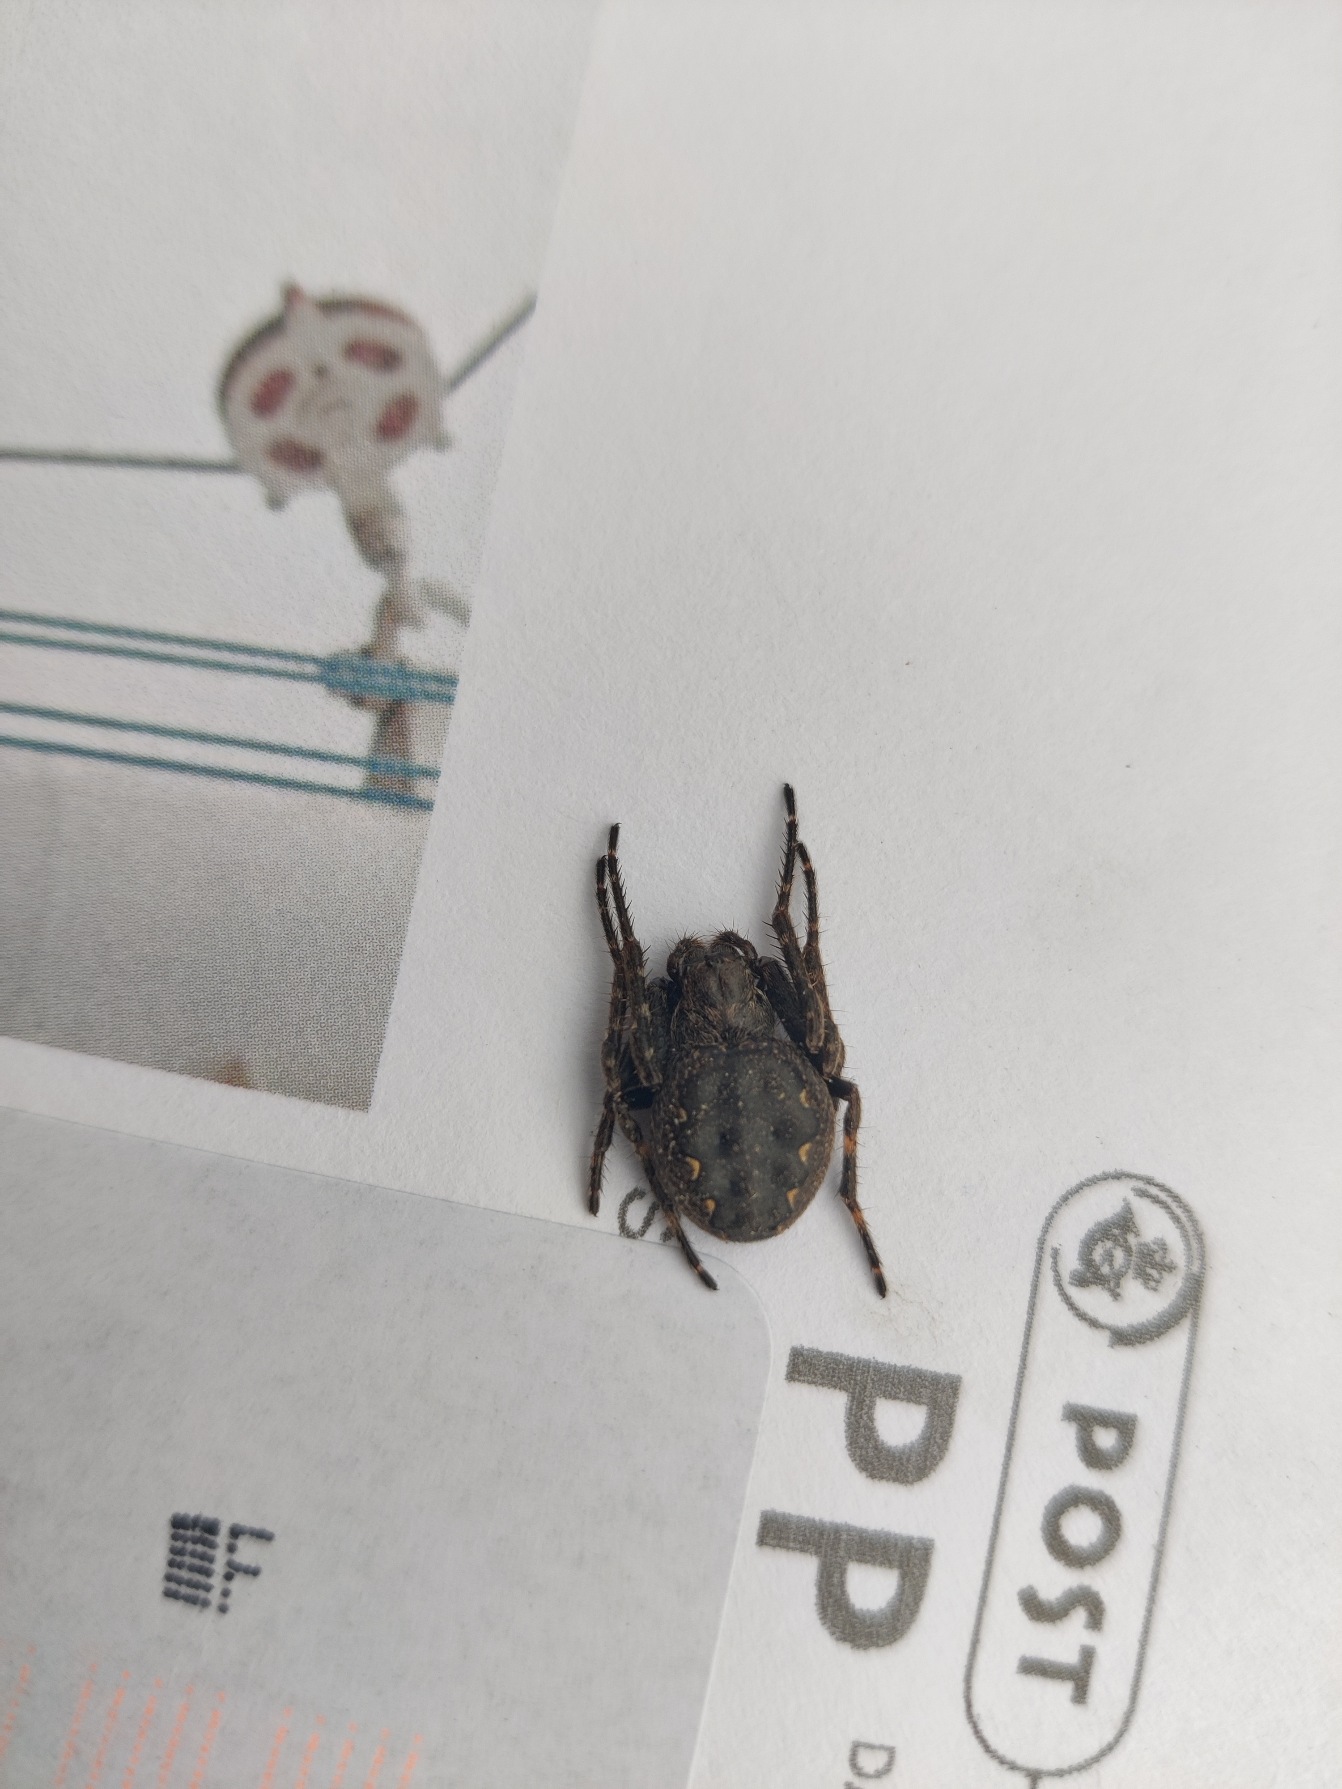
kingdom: Animalia
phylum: Arthropoda
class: Arachnida
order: Araneae
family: Araneidae
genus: Nuctenea
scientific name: Nuctenea umbratica
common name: Flad hjulspinder
